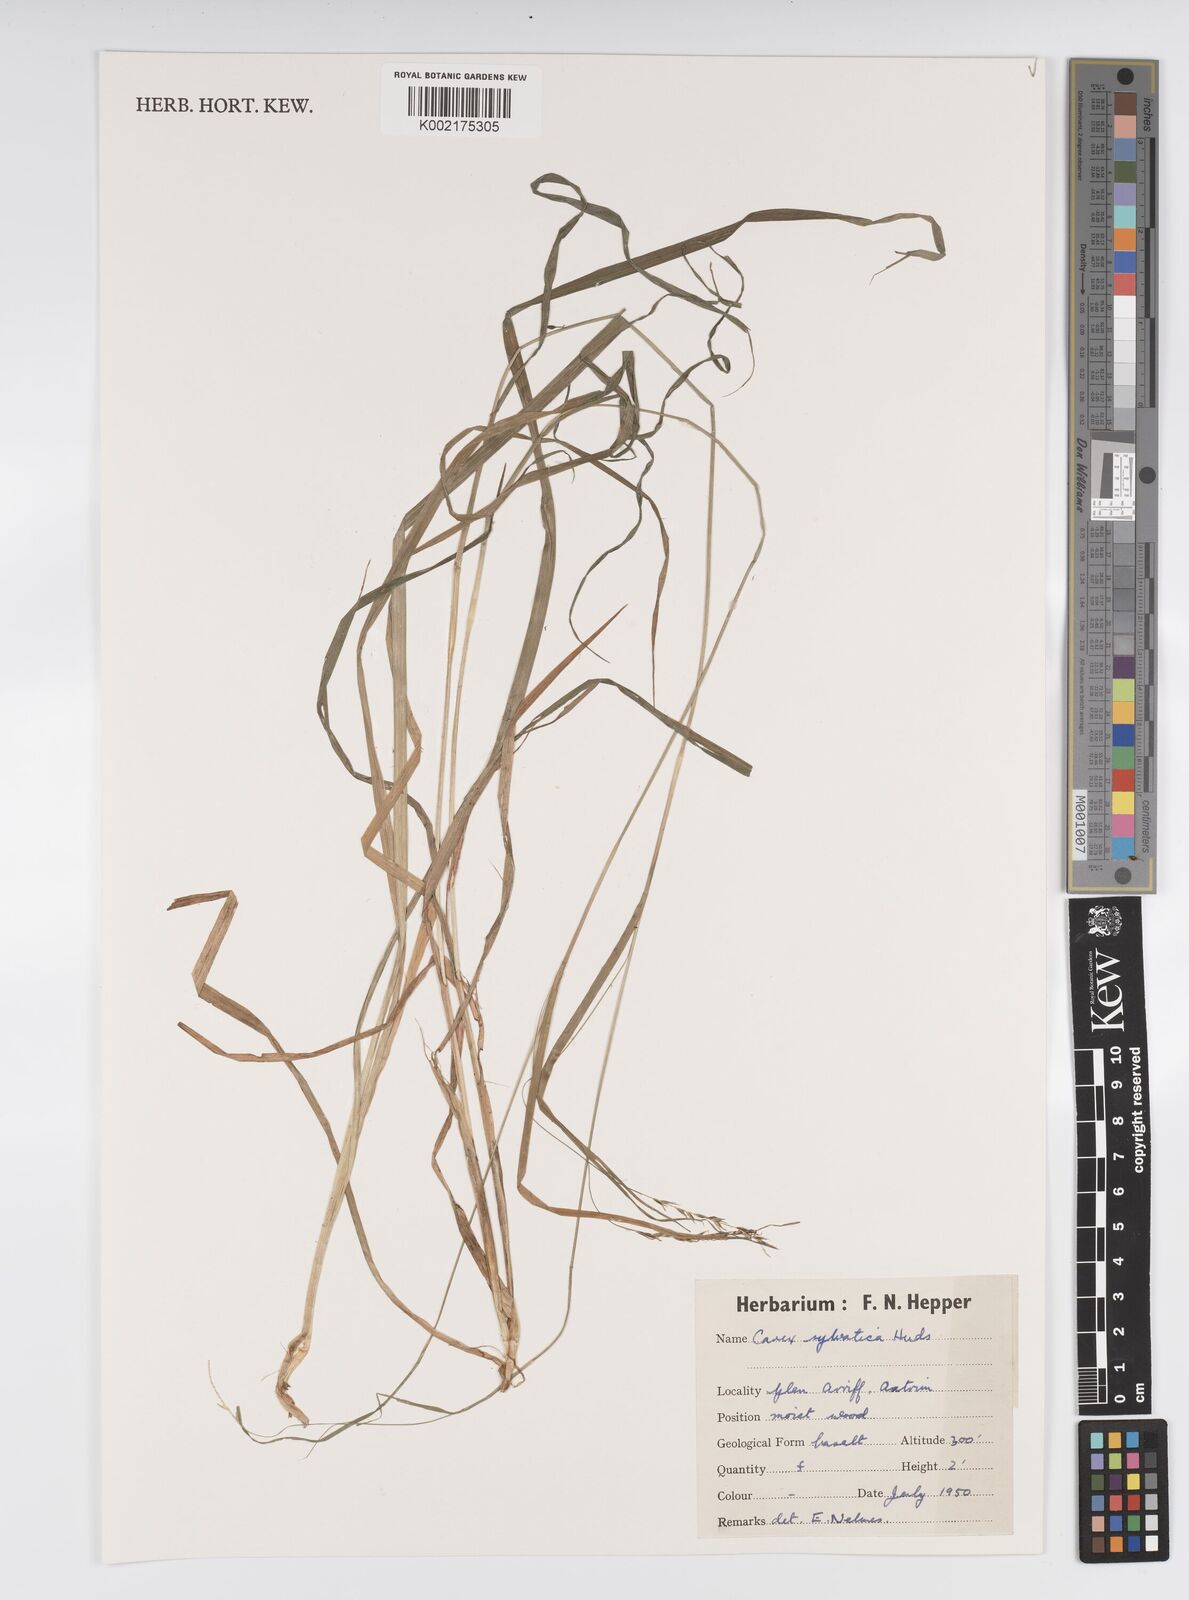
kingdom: Plantae
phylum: Tracheophyta
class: Liliopsida
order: Poales
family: Cyperaceae
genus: Carex
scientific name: Carex sylvatica
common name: Wood-sedge
